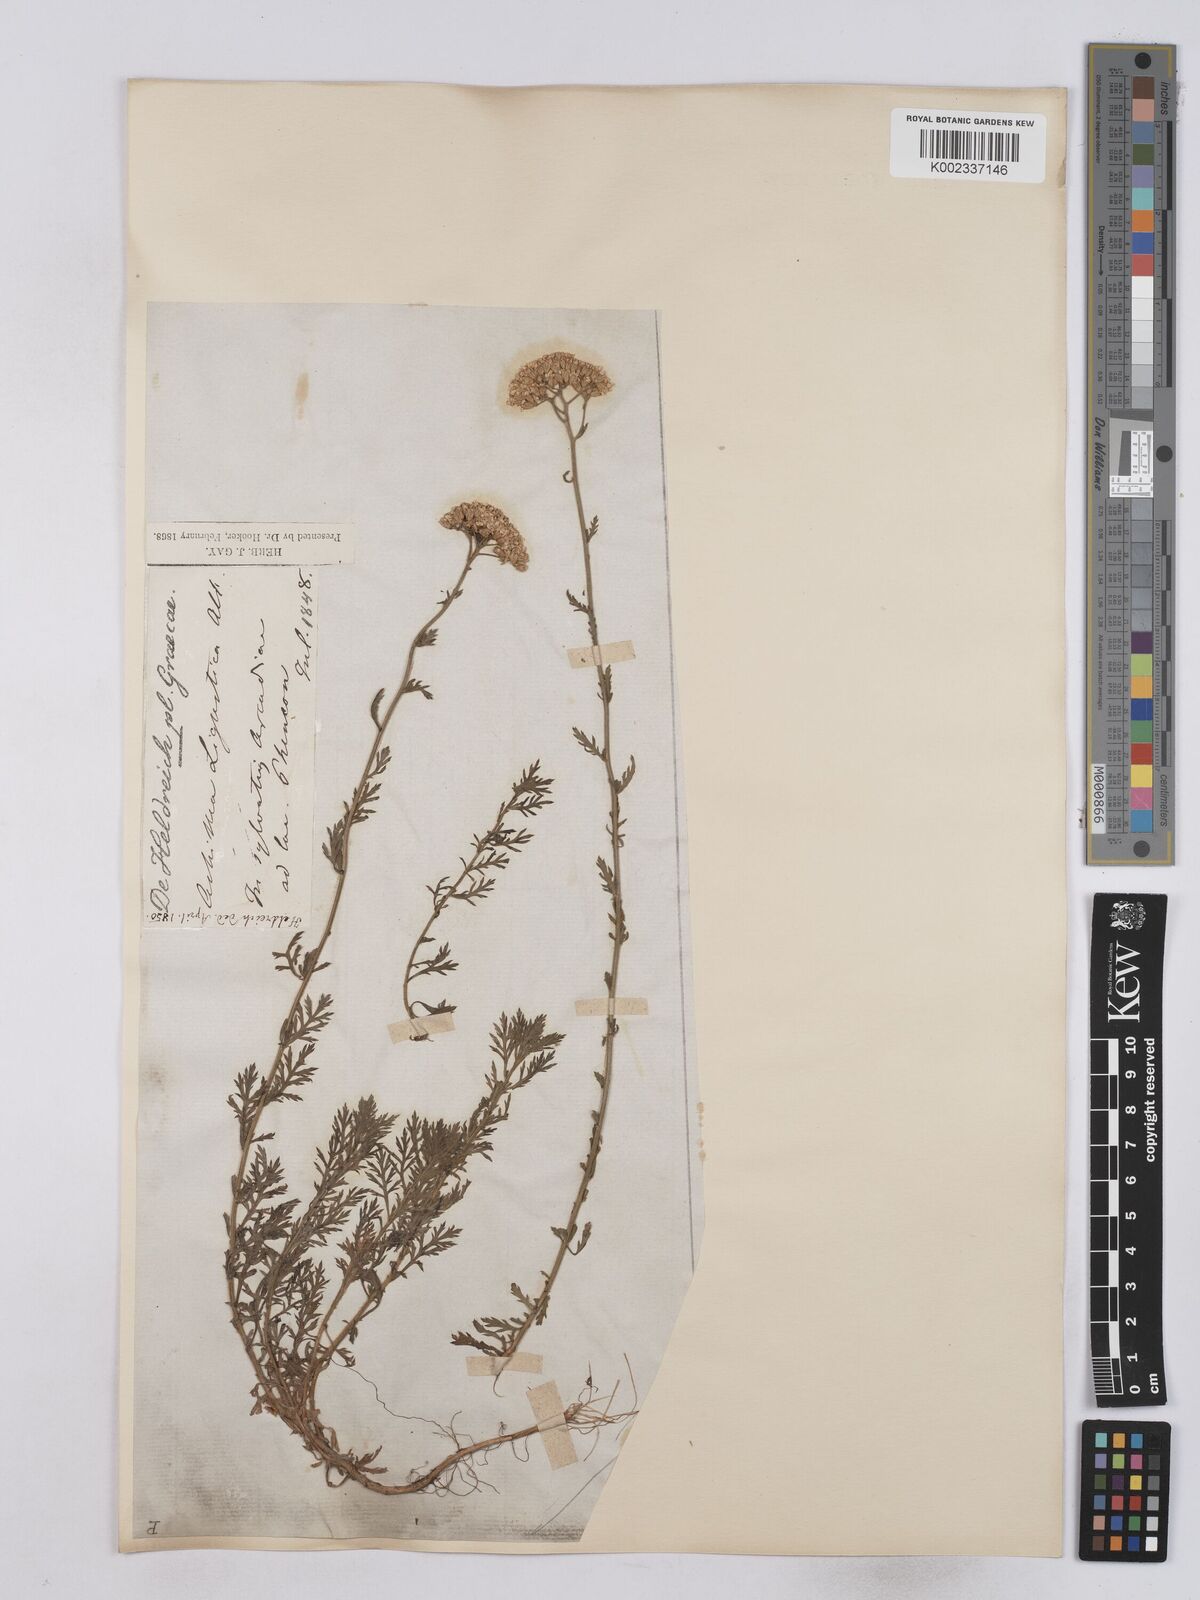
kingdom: Plantae
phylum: Tracheophyta
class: Magnoliopsida
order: Asterales
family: Asteraceae
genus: Achillea
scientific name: Achillea ligustica
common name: Southern yarrow
